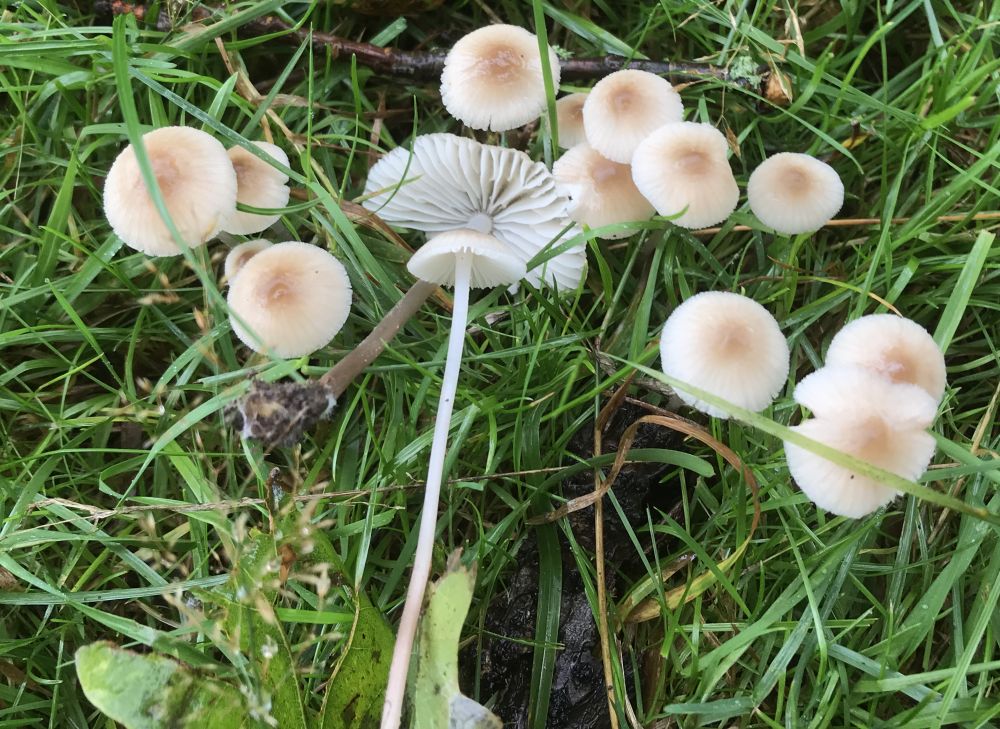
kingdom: Fungi
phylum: Basidiomycota
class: Agaricomycetes
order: Agaricales
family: Mycenaceae
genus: Mycena
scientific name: Mycena
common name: huesvamp
